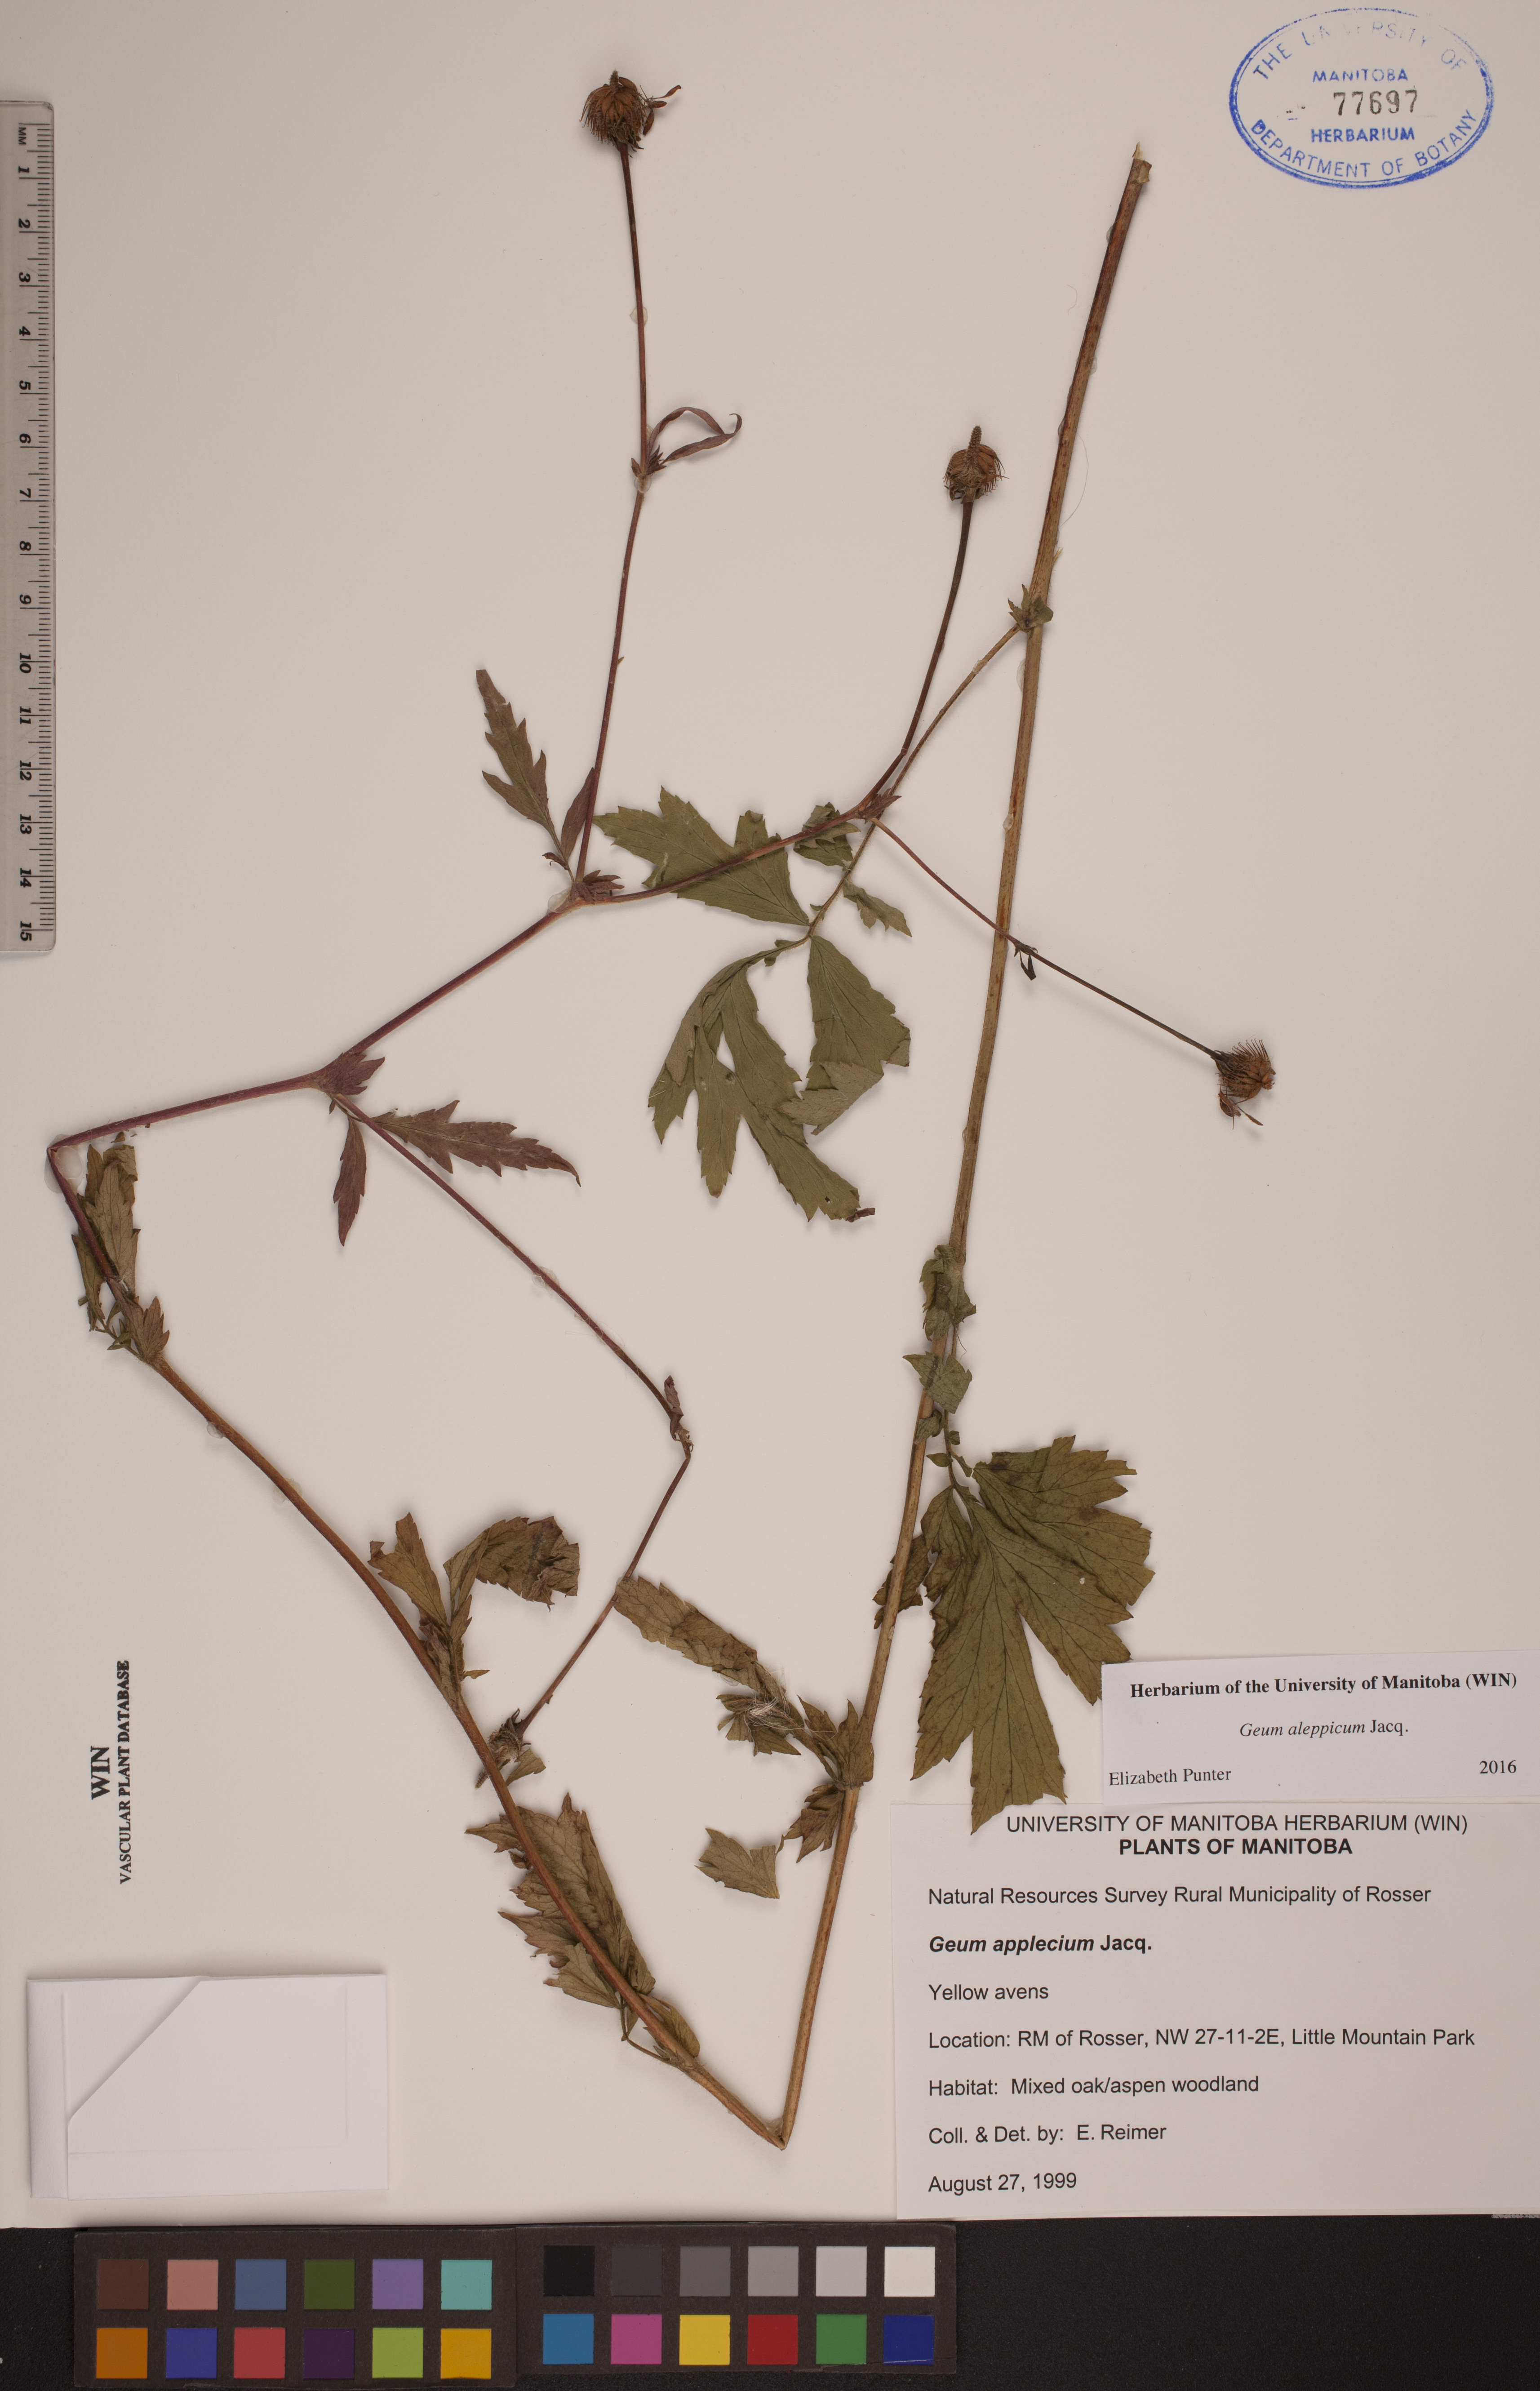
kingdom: Plantae
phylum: Tracheophyta
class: Magnoliopsida
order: Rosales
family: Rosaceae
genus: Geum
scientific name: Geum aleppicum
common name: Yellow avens
